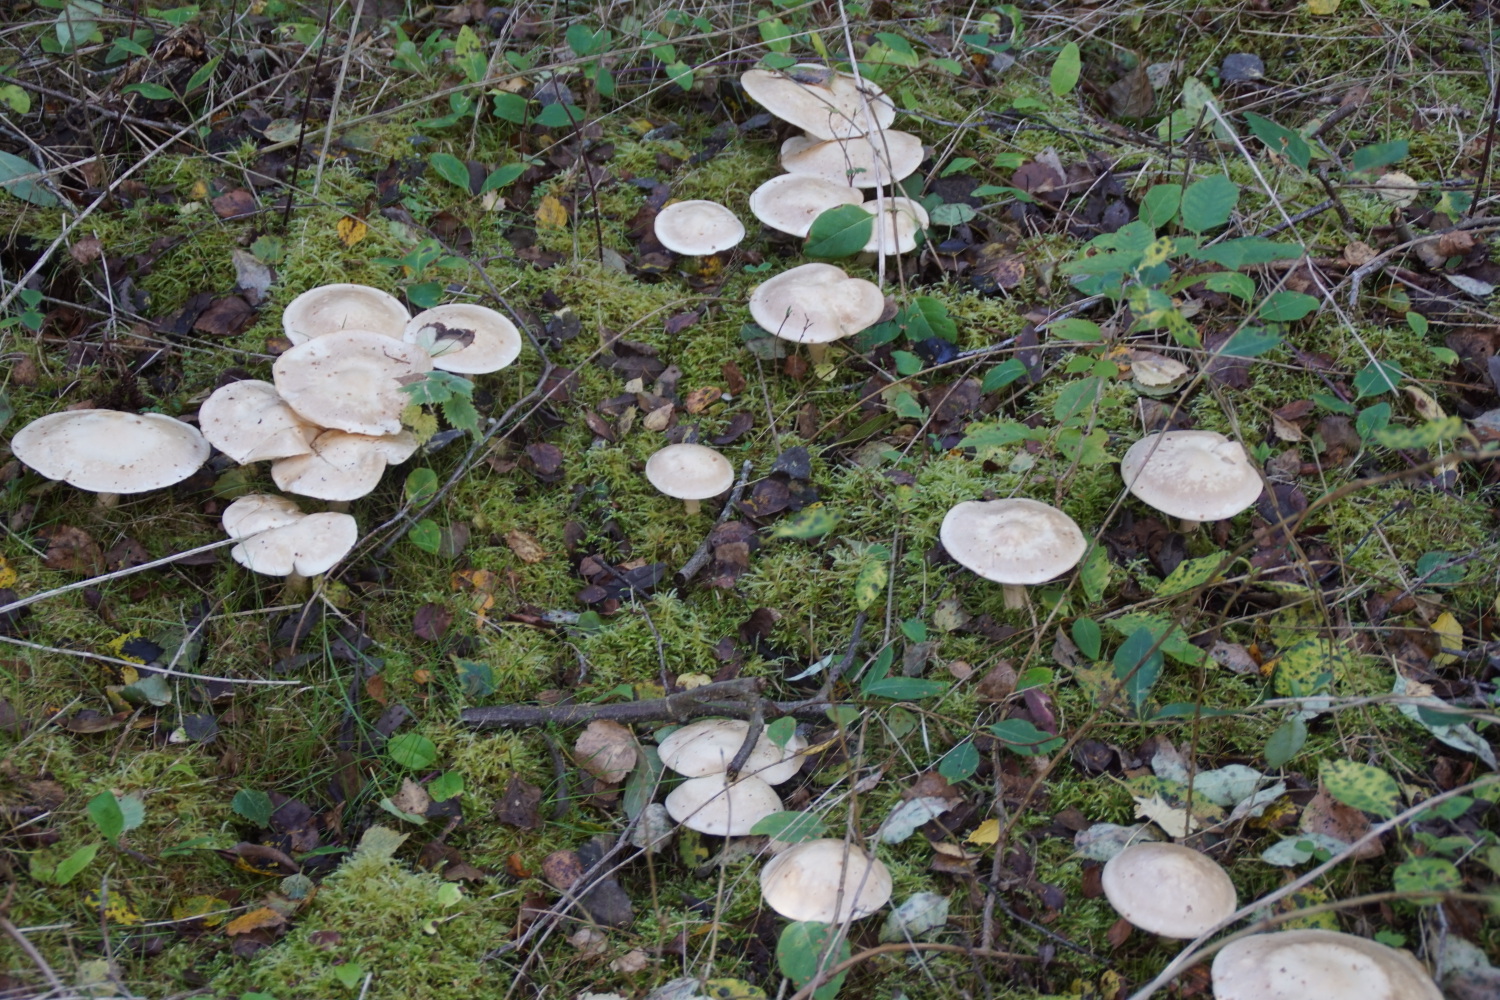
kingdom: Fungi
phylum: Basidiomycota
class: Agaricomycetes
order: Agaricales
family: Tricholomataceae
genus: Tricholoma
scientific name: Tricholoma stiparophyllum
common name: hvid ridderhat
